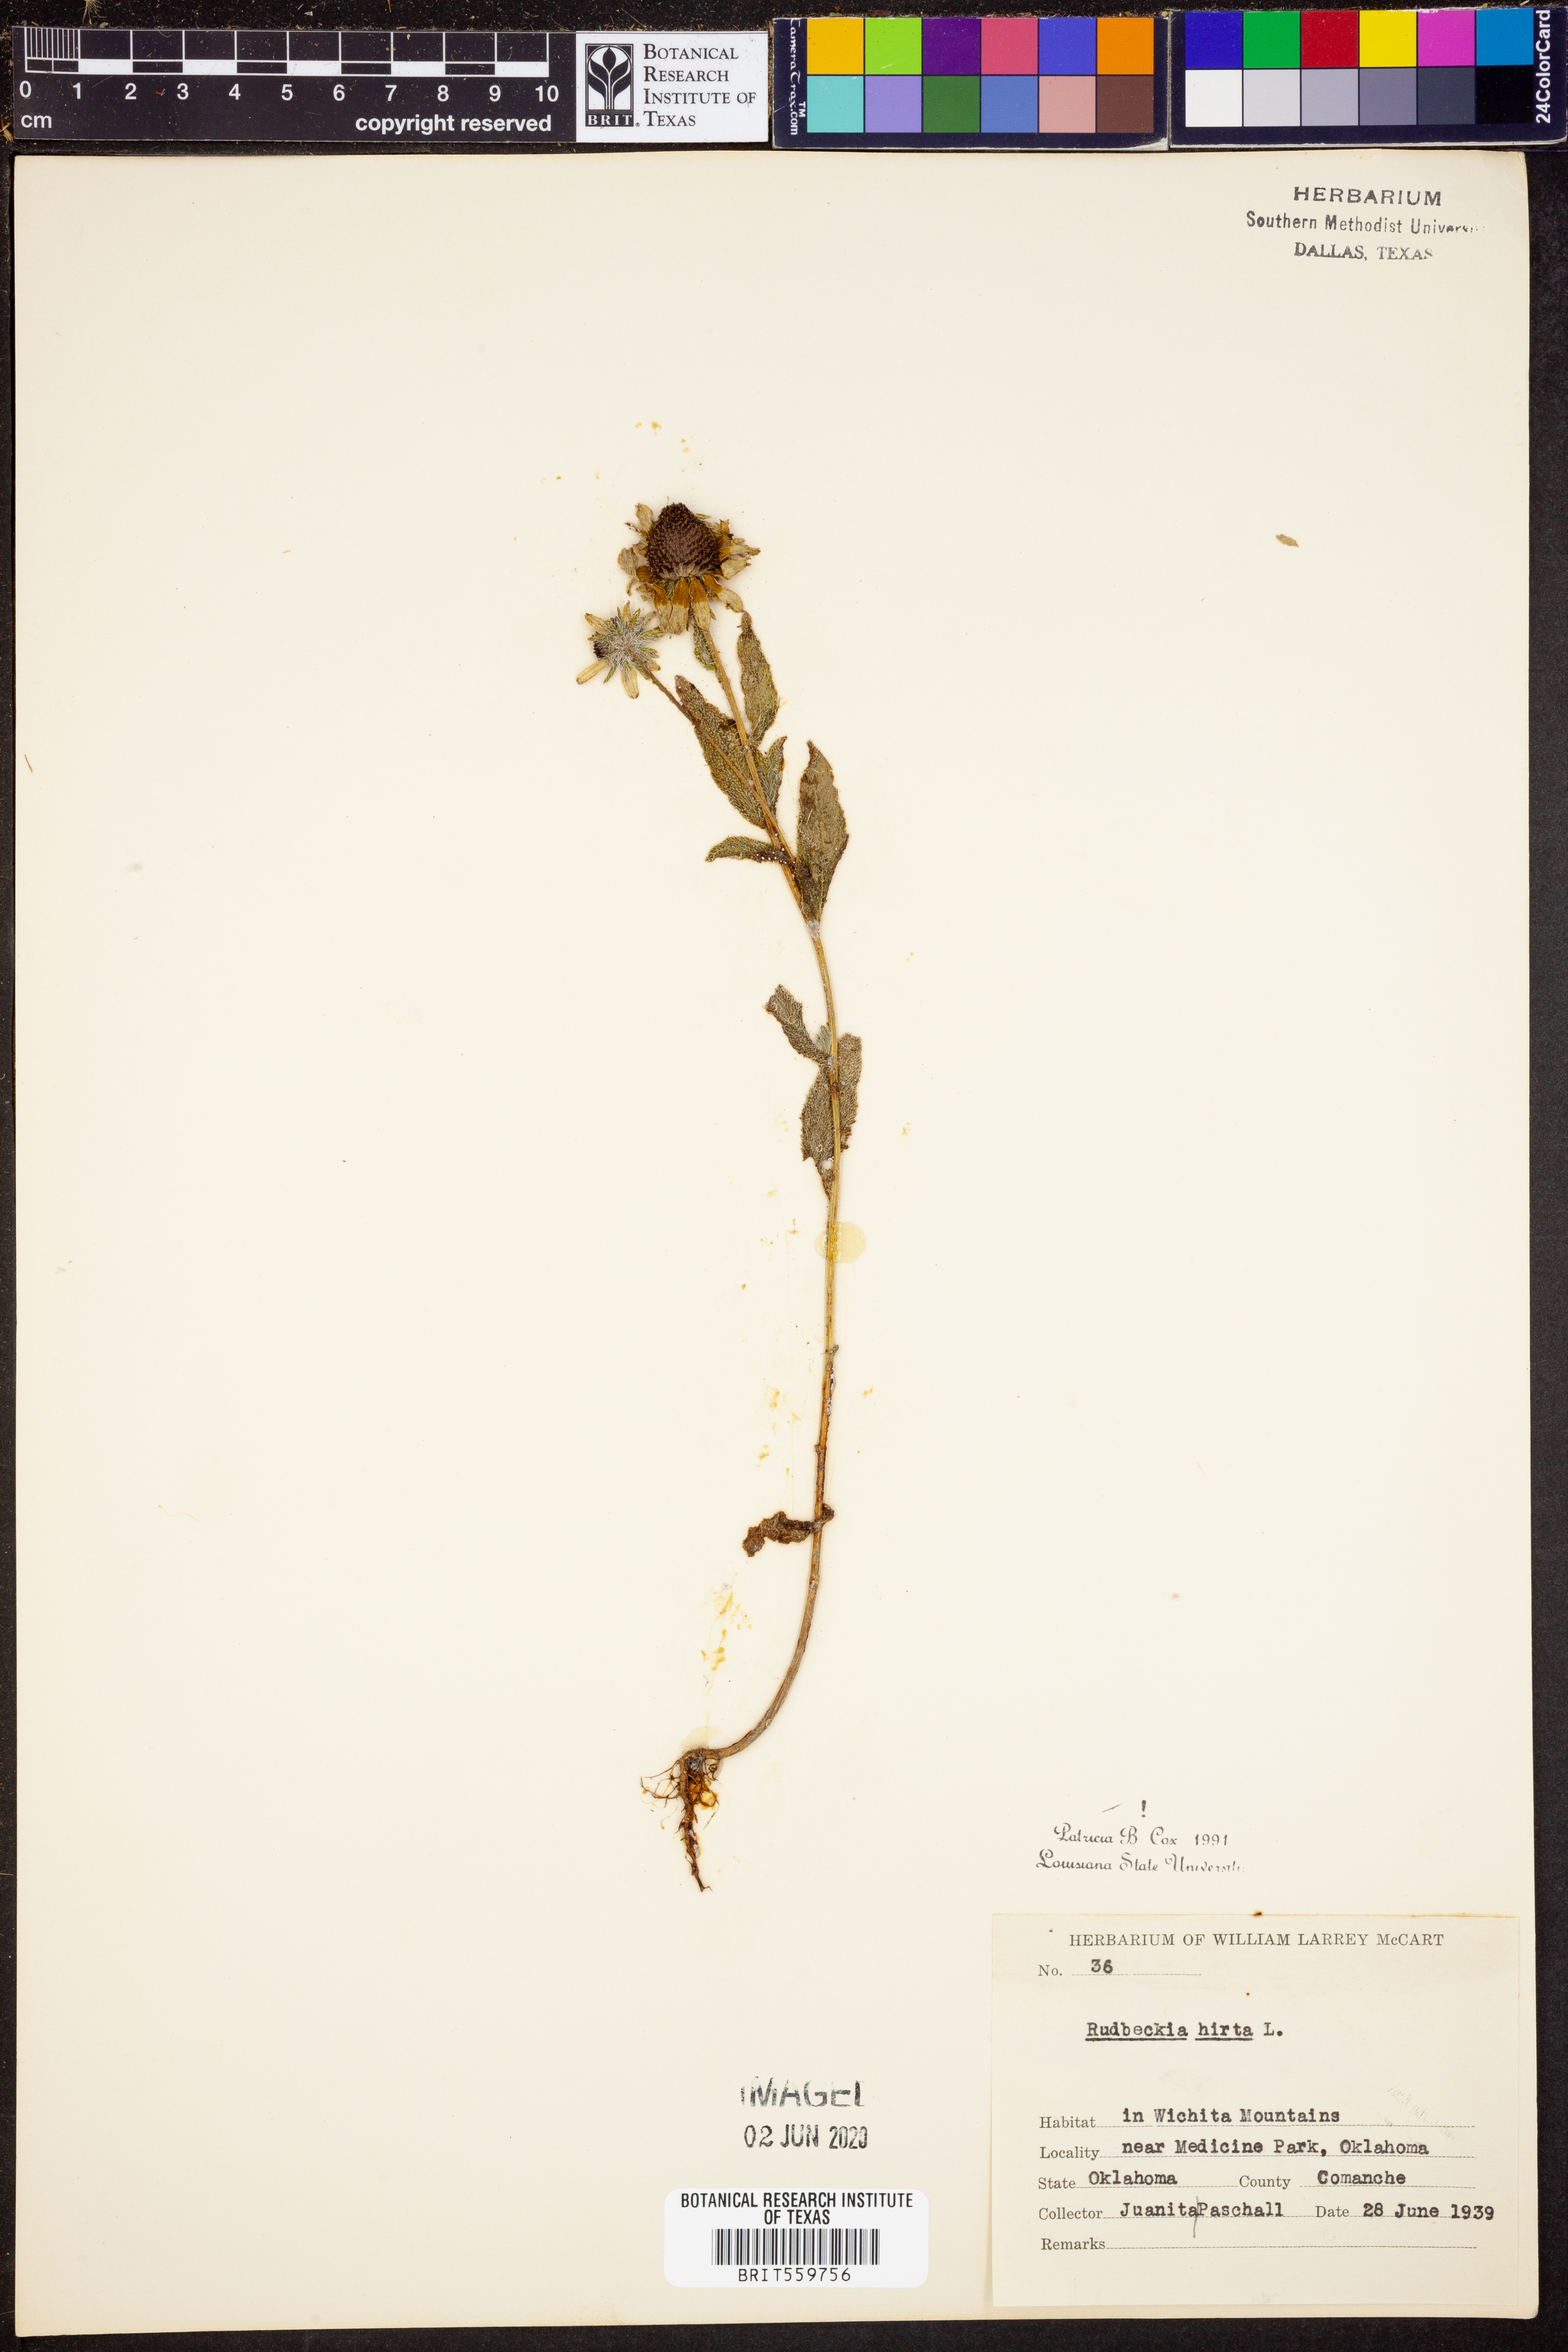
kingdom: Plantae
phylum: Tracheophyta
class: Magnoliopsida
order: Asterales
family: Asteraceae
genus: Rudbeckia
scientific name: Rudbeckia hirta
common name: Black-eyed-susan
